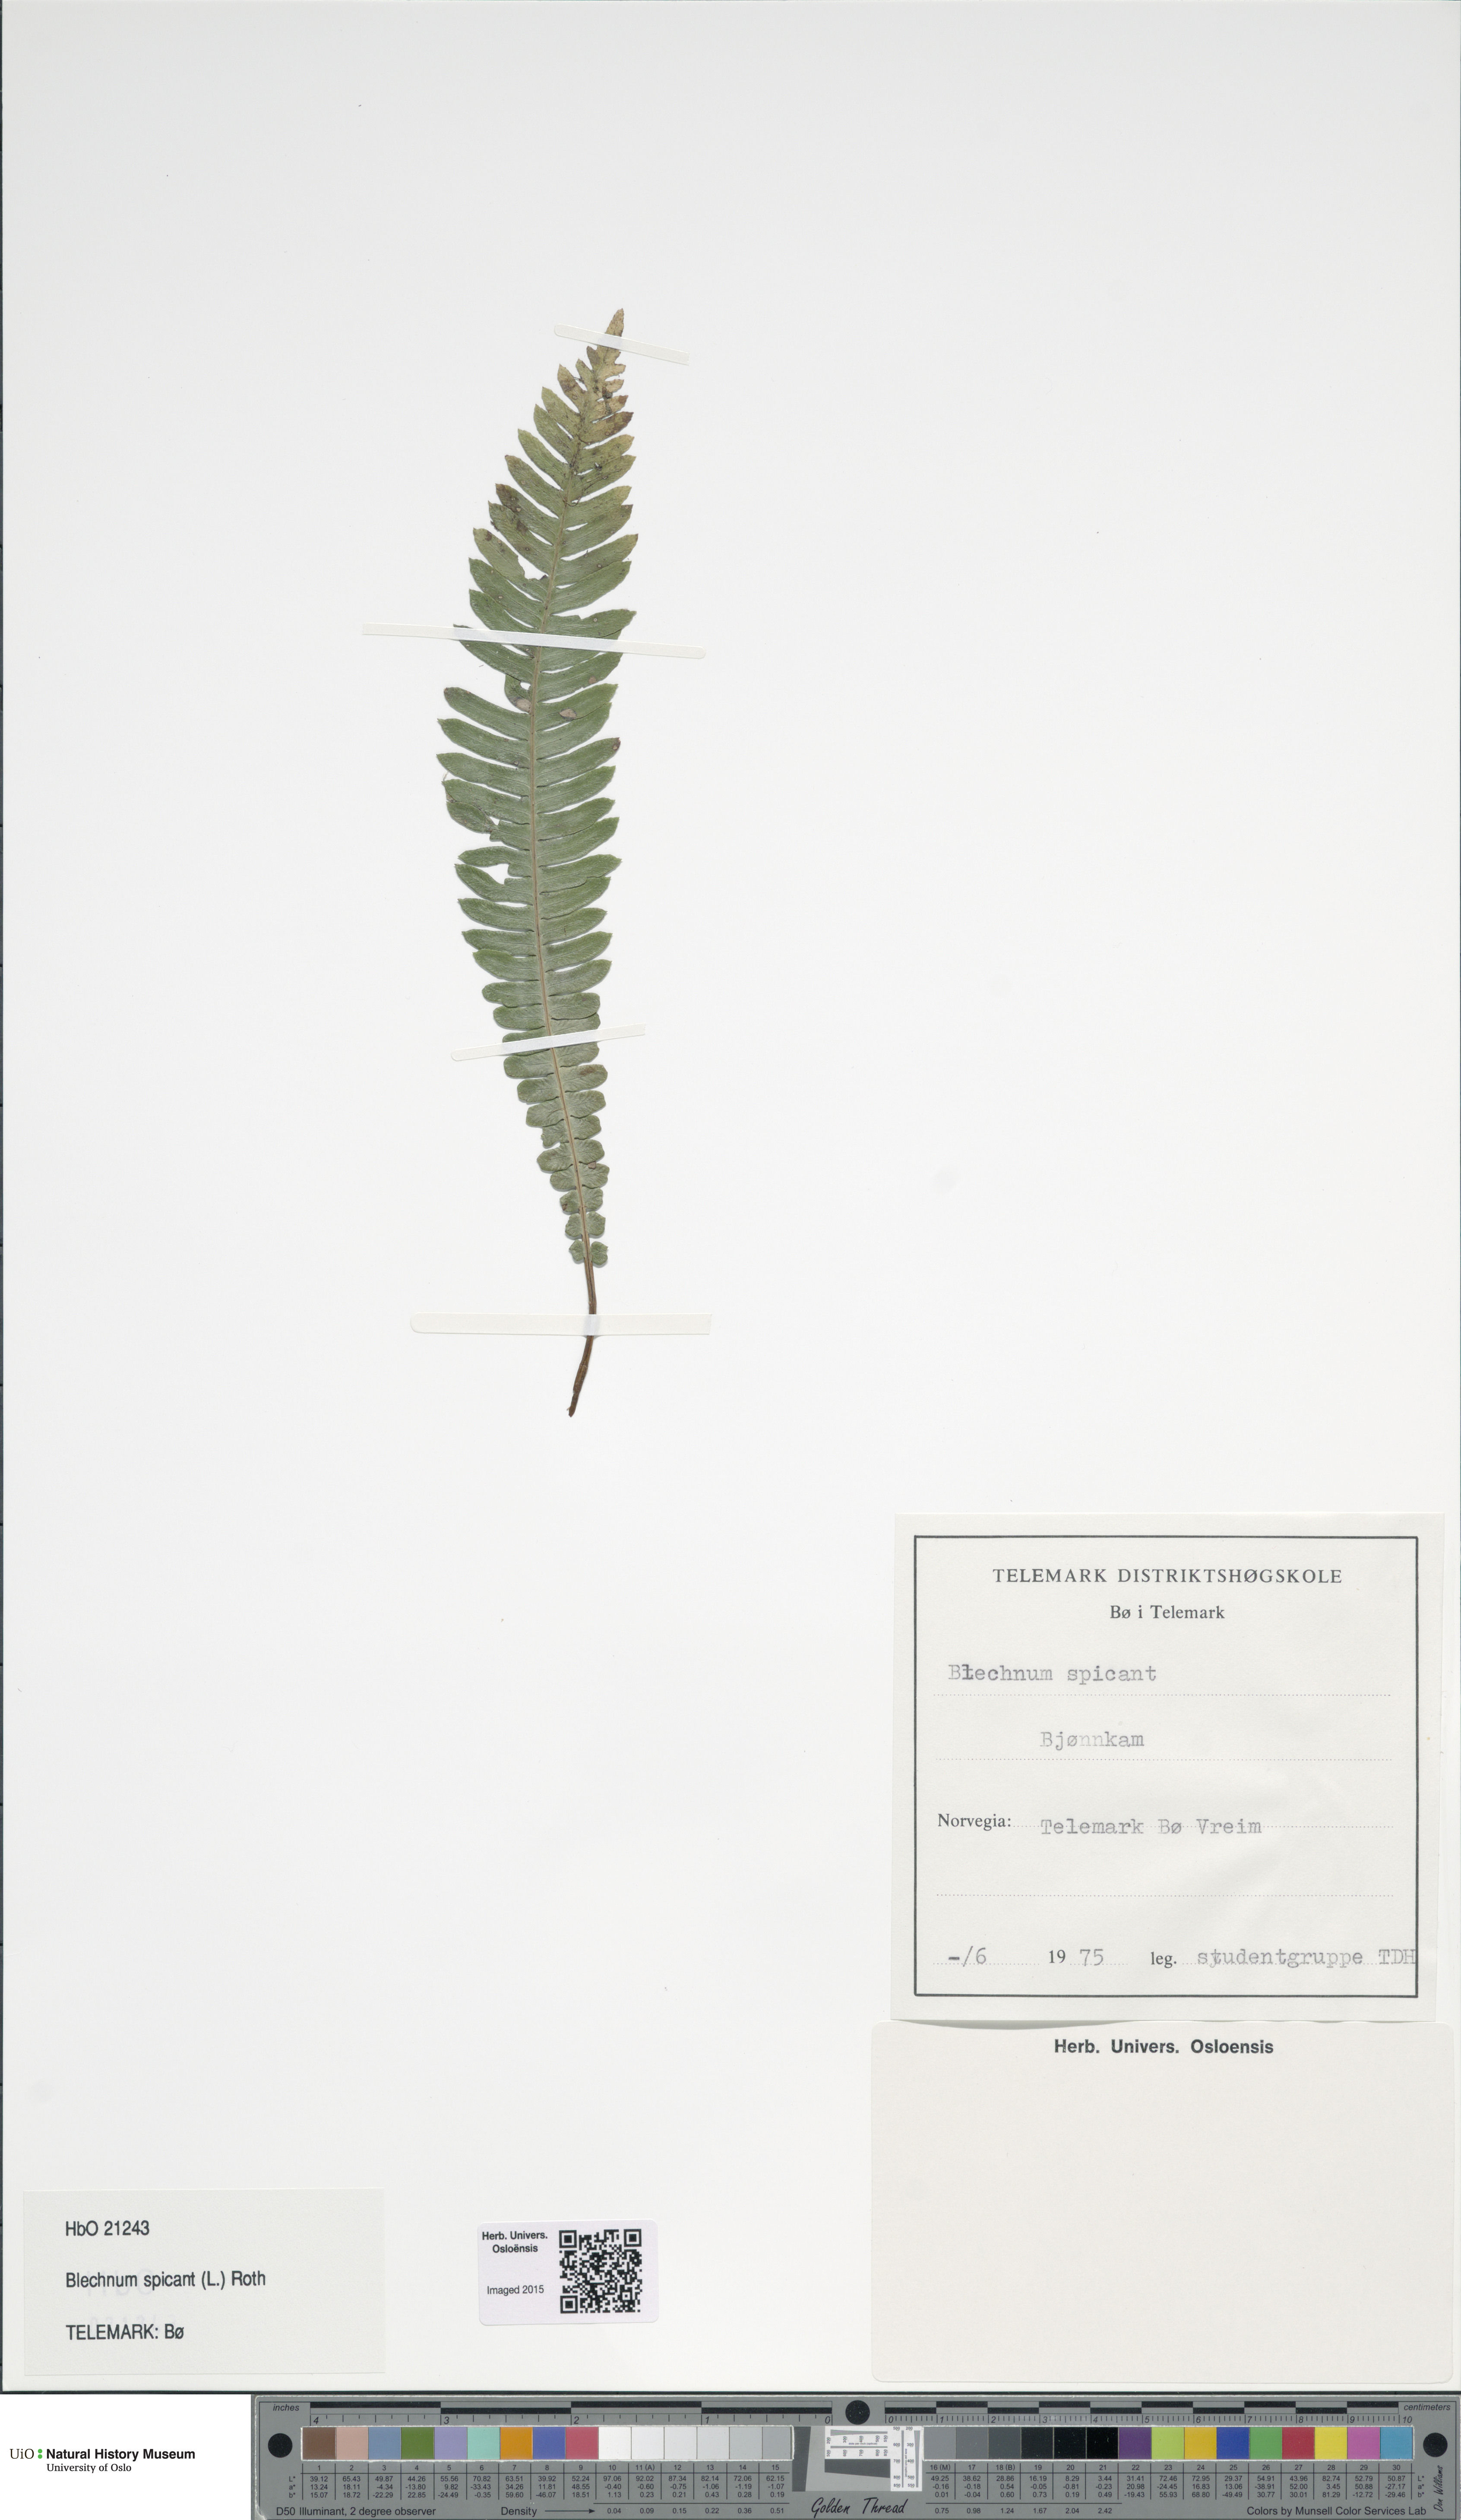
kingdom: Plantae
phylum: Tracheophyta
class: Polypodiopsida
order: Polypodiales
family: Blechnaceae
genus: Struthiopteris
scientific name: Struthiopteris spicant
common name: Deer fern
